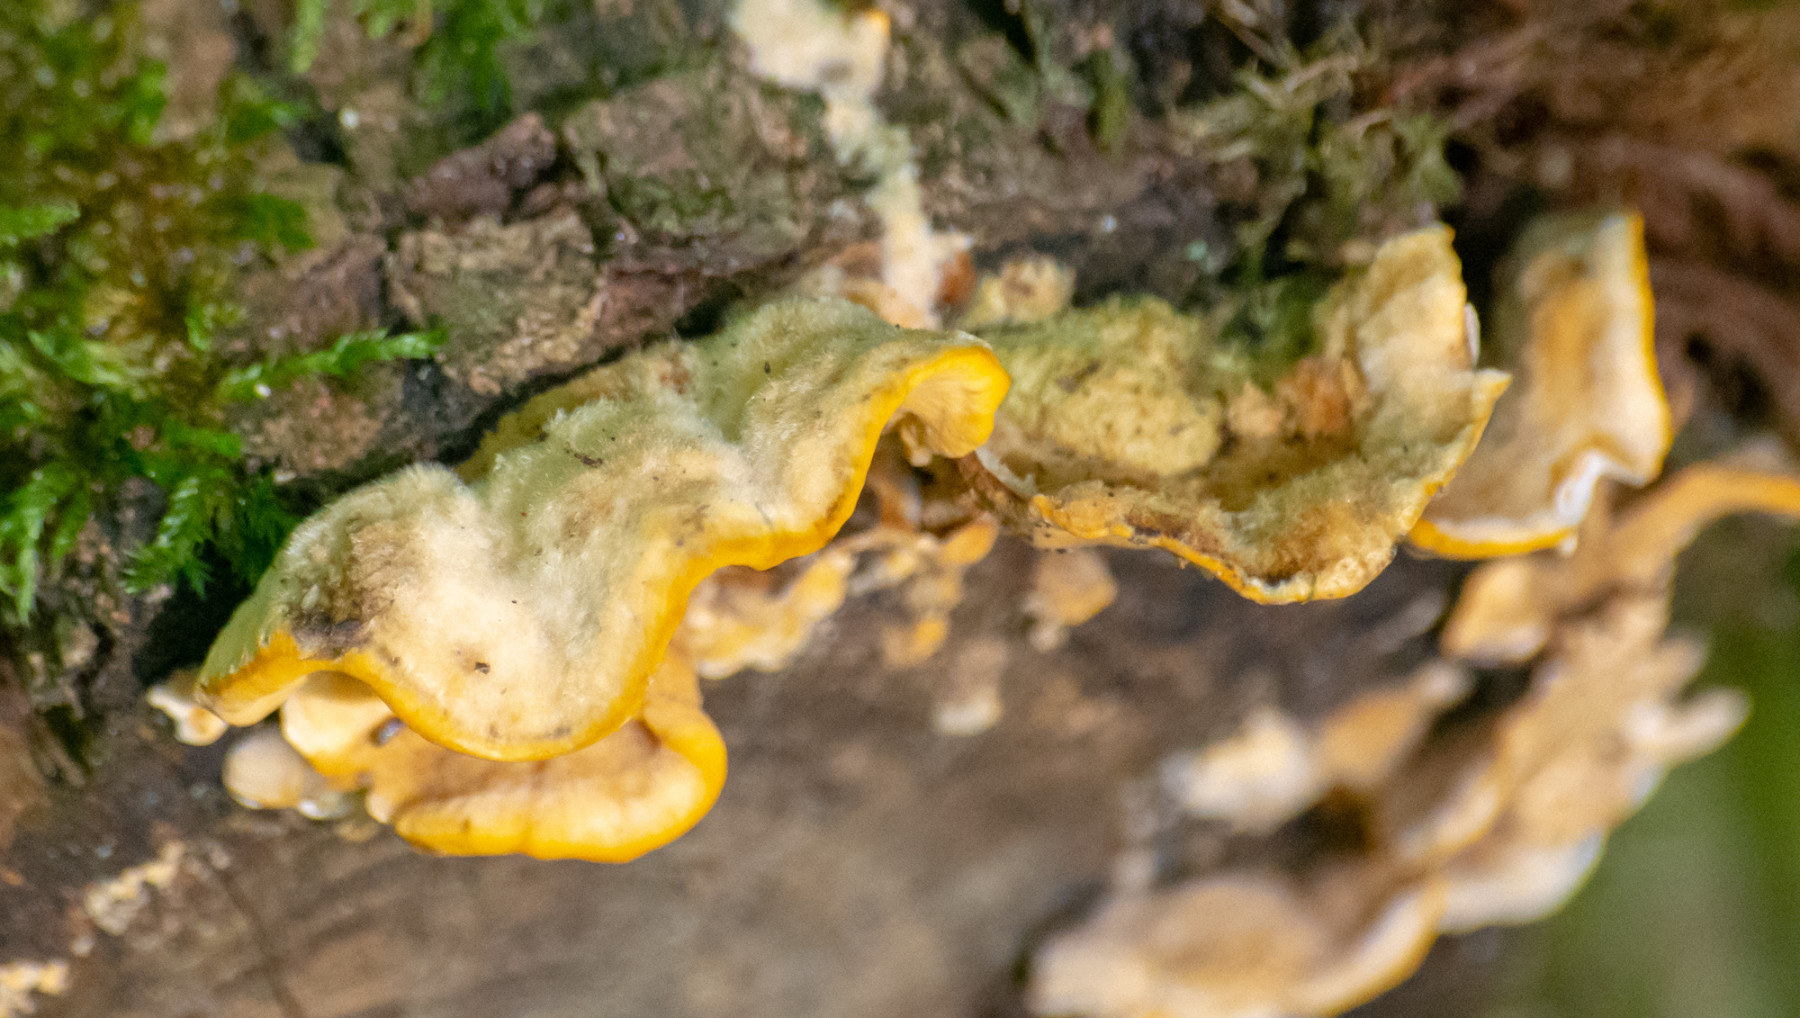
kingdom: Fungi
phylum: Basidiomycota
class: Agaricomycetes
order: Russulales
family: Stereaceae
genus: Stereum
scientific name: Stereum hirsutum
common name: håret lædersvamp
